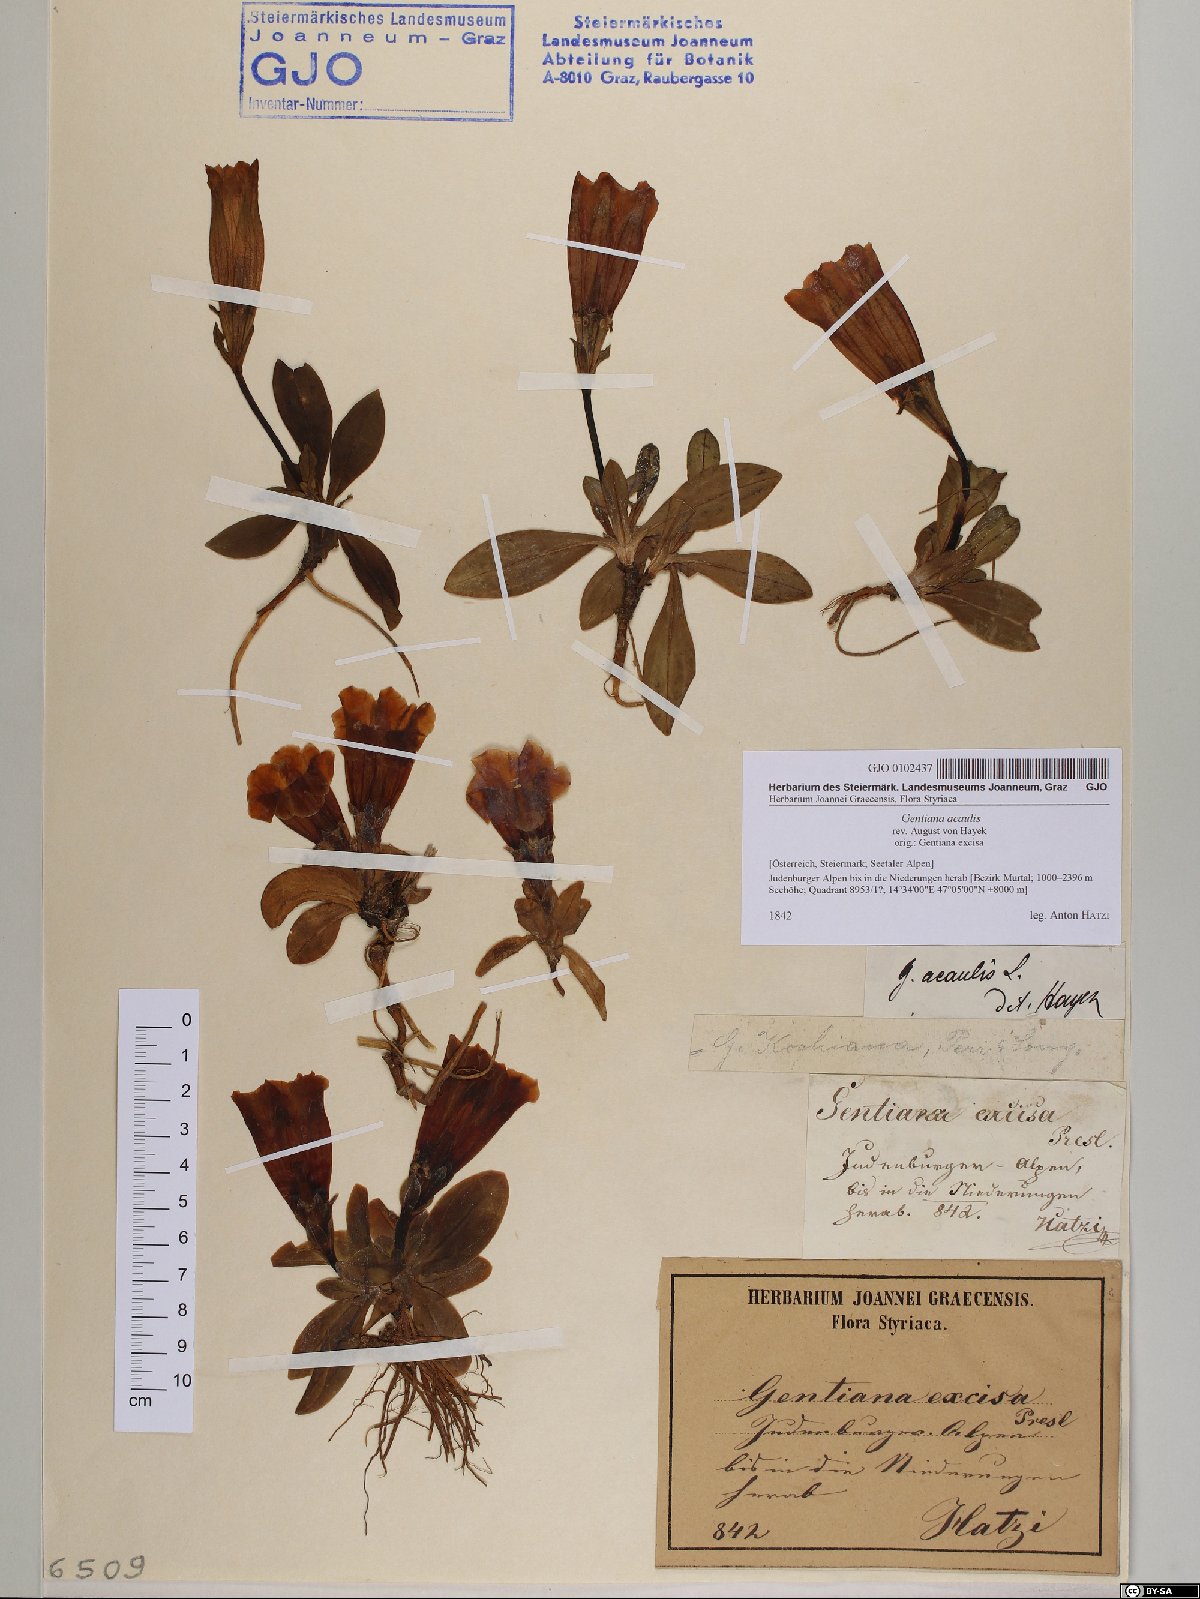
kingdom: Plantae
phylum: Tracheophyta
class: Magnoliopsida
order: Gentianales
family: Gentianaceae
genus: Gentiana
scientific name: Gentiana acaulis
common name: Trumpet gentian
